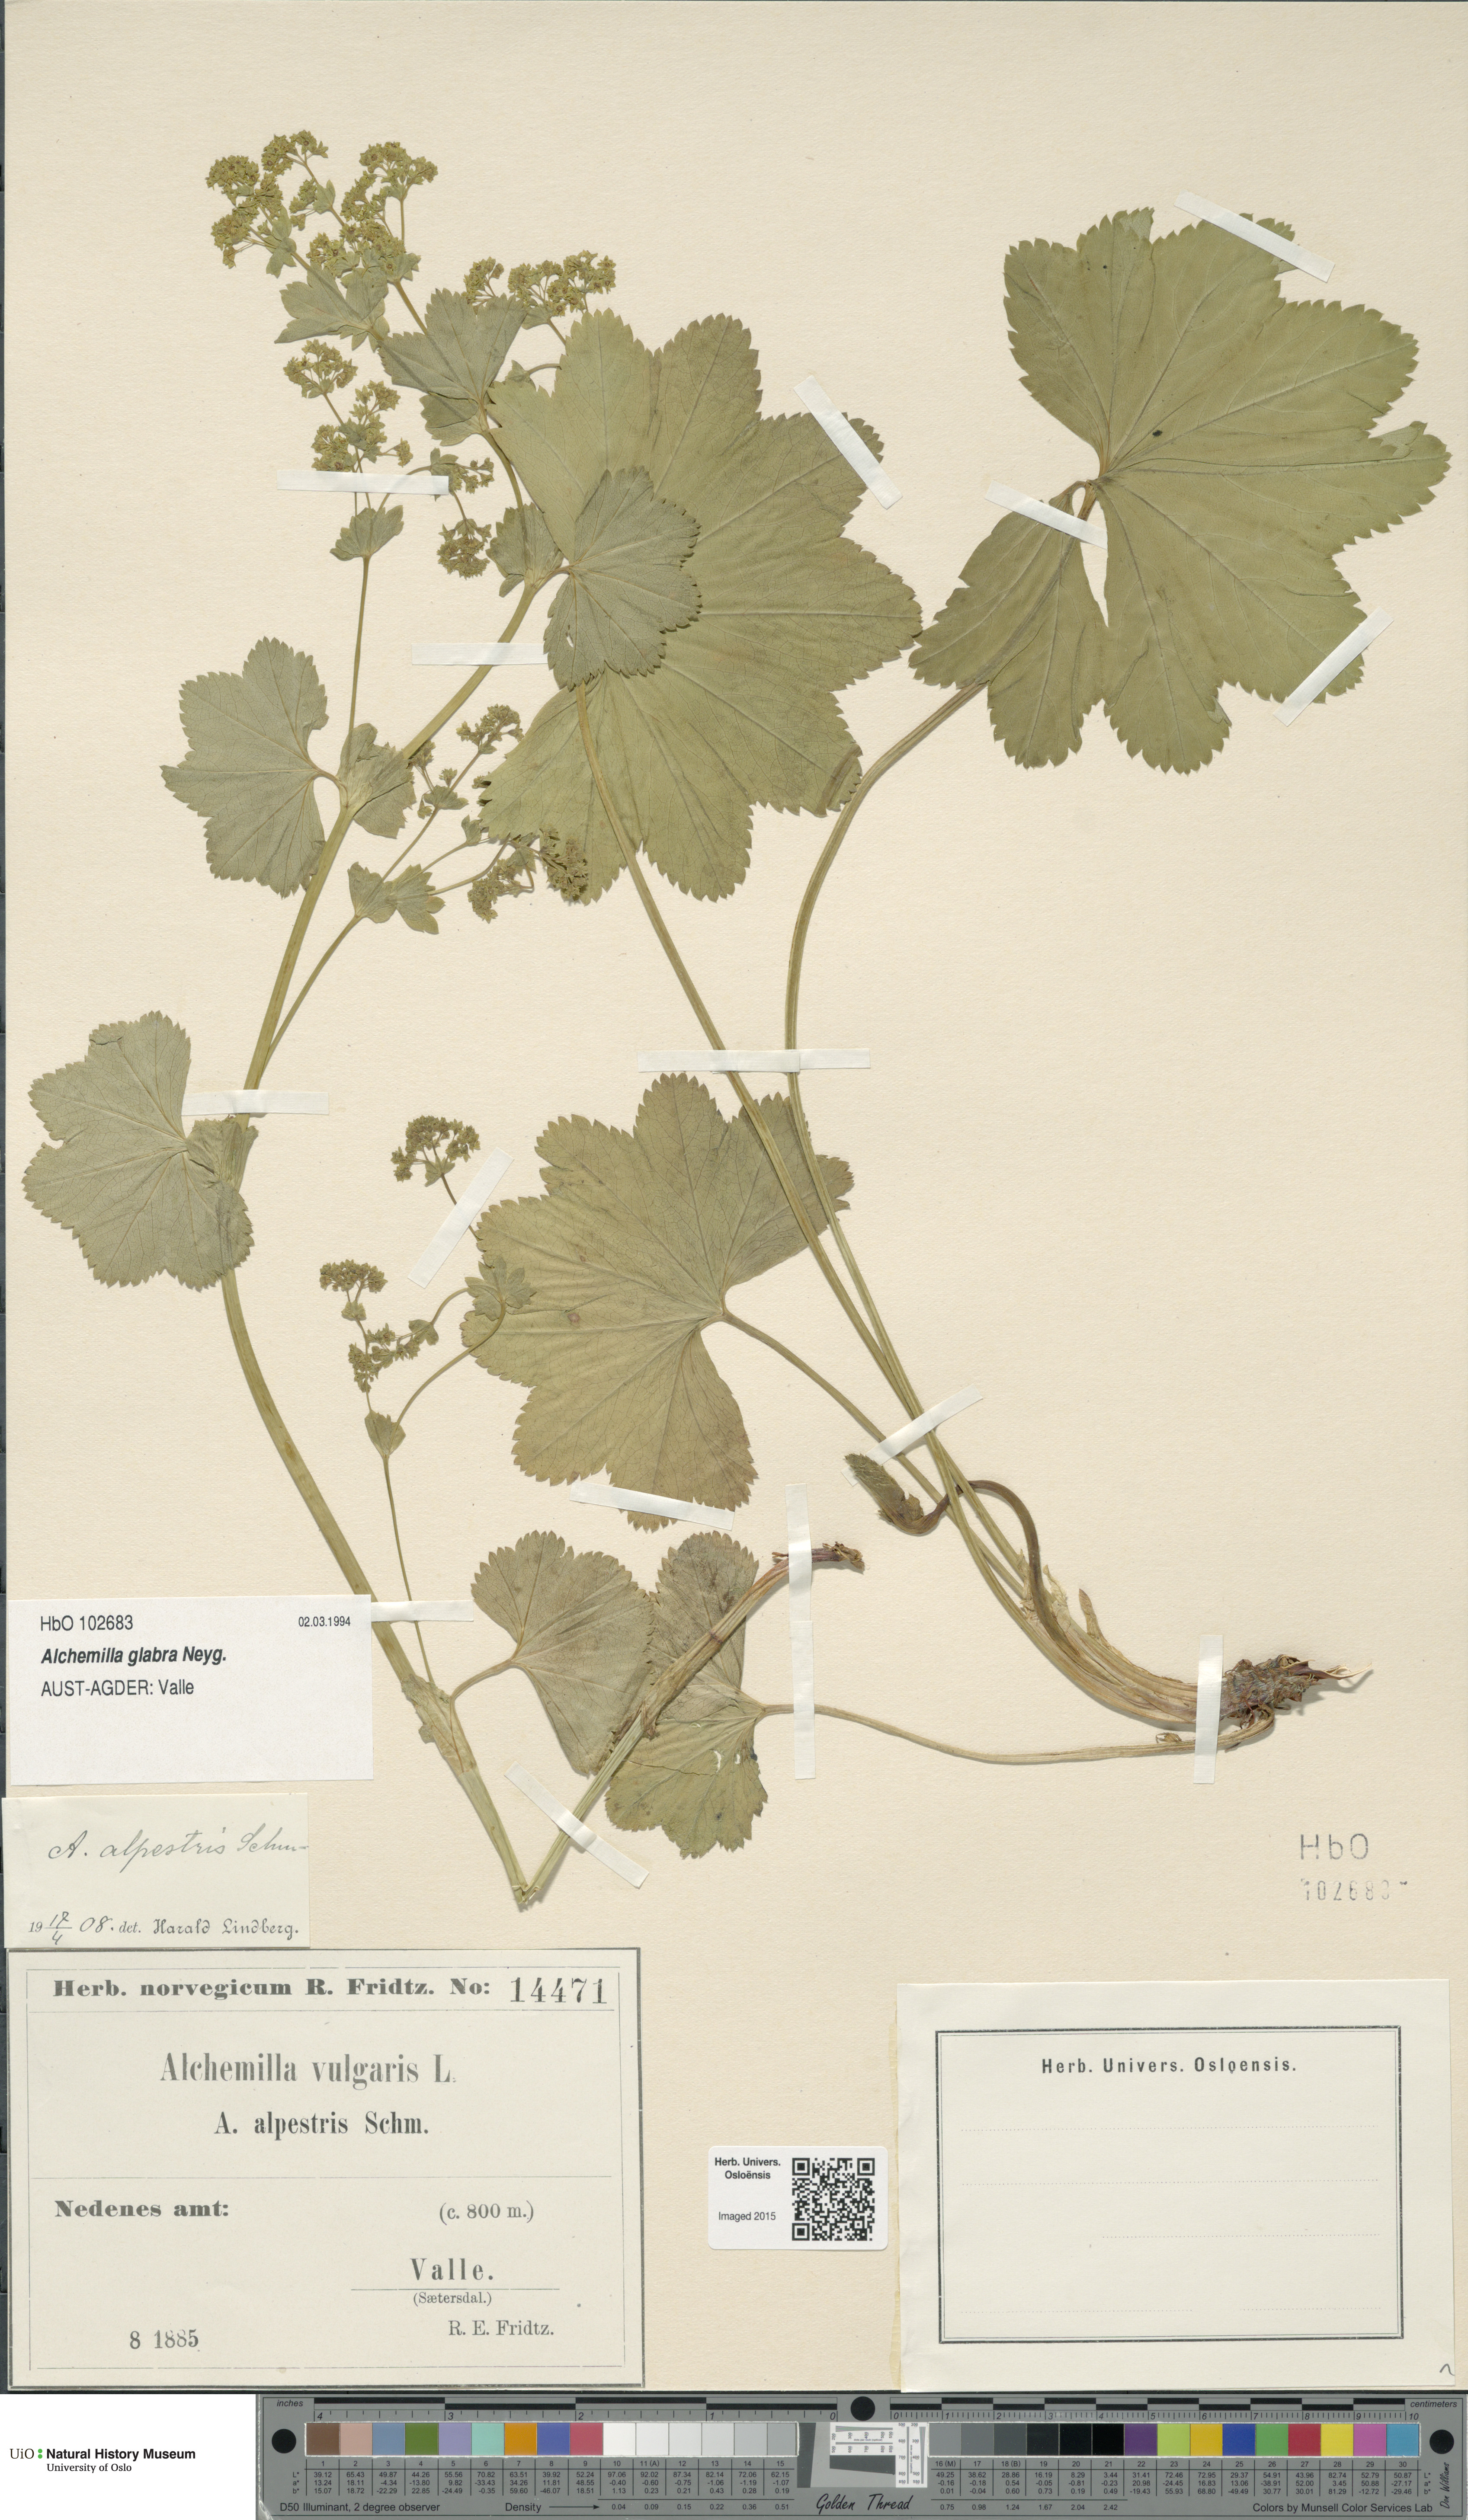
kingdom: Plantae
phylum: Tracheophyta
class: Magnoliopsida
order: Rosales
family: Rosaceae
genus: Alchemilla
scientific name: Alchemilla glabra
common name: Smooth lady's-mantle
